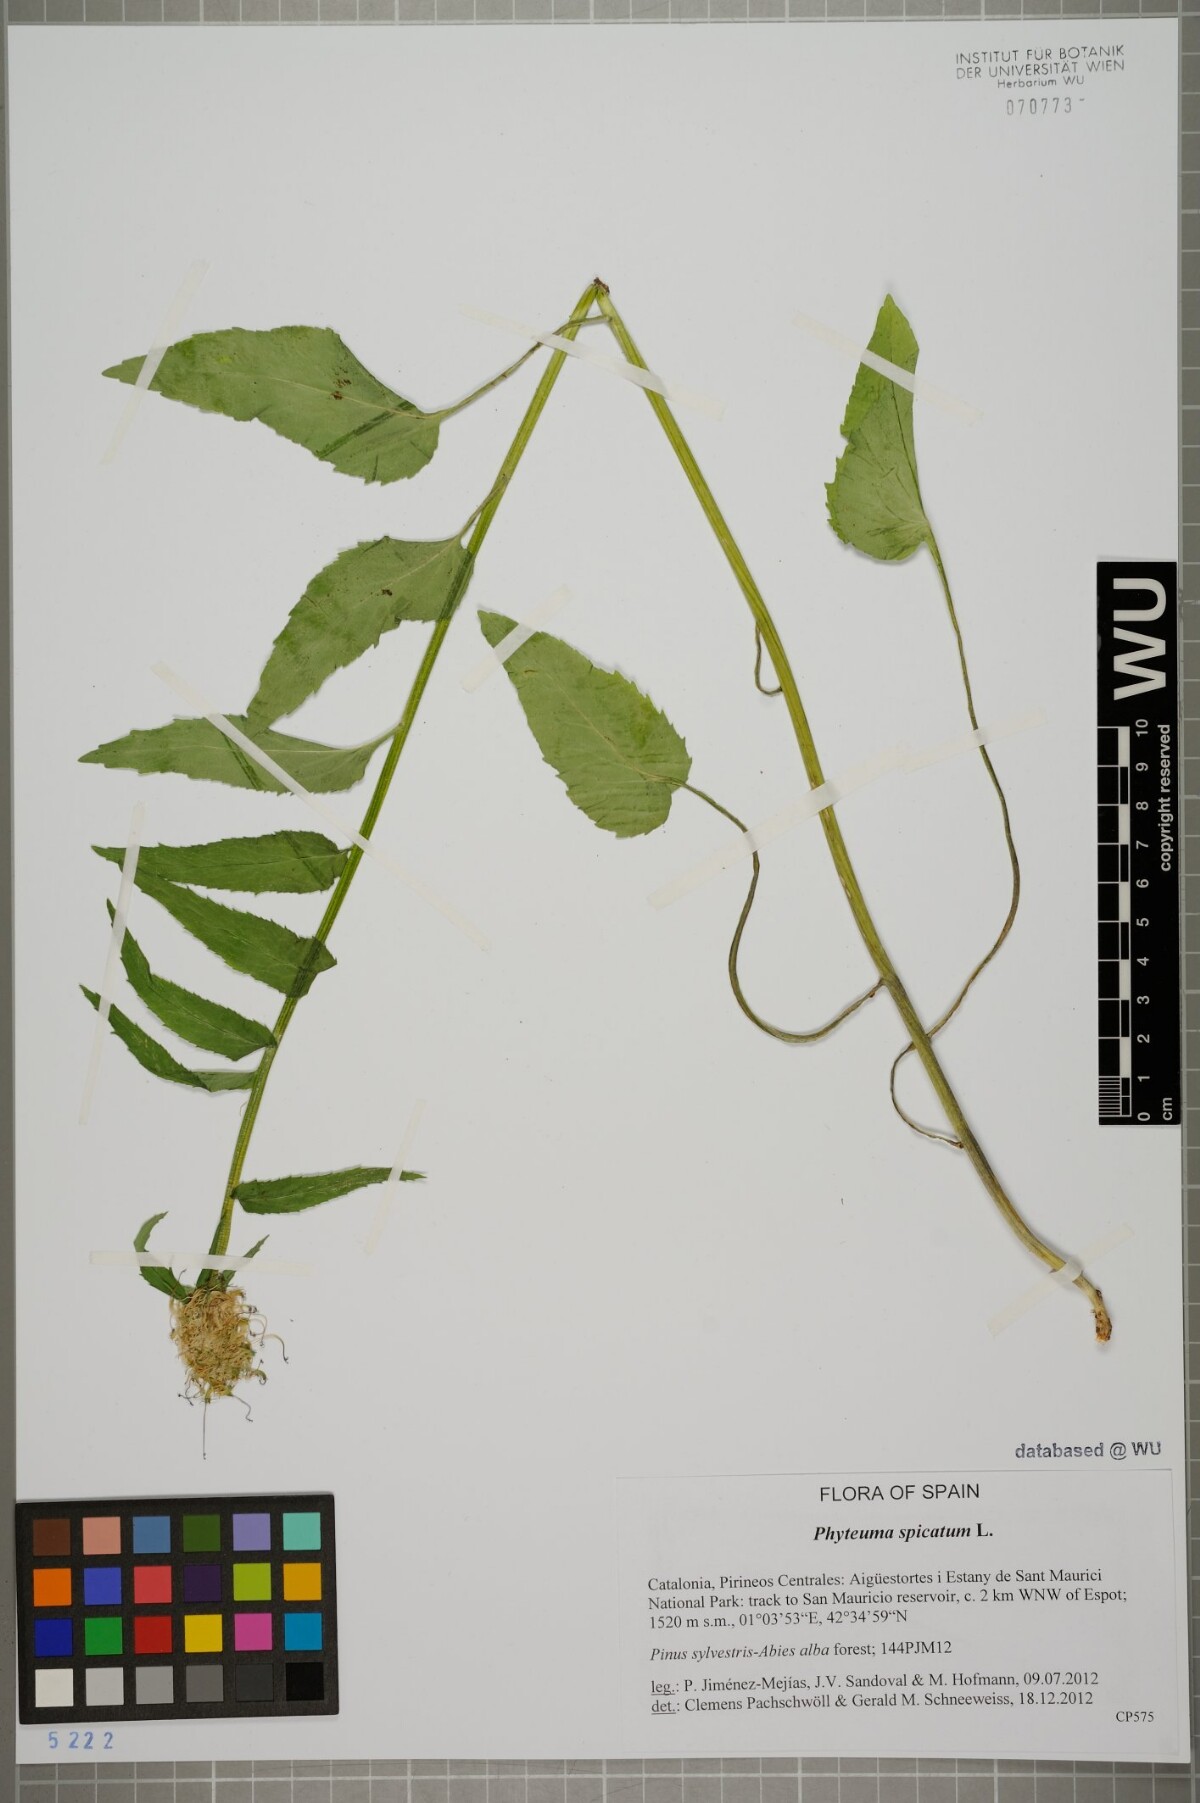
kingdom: Plantae
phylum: Tracheophyta
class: Magnoliopsida
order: Asterales
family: Campanulaceae
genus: Phyteuma
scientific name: Phyteuma spicatum
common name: Spiked rampion
